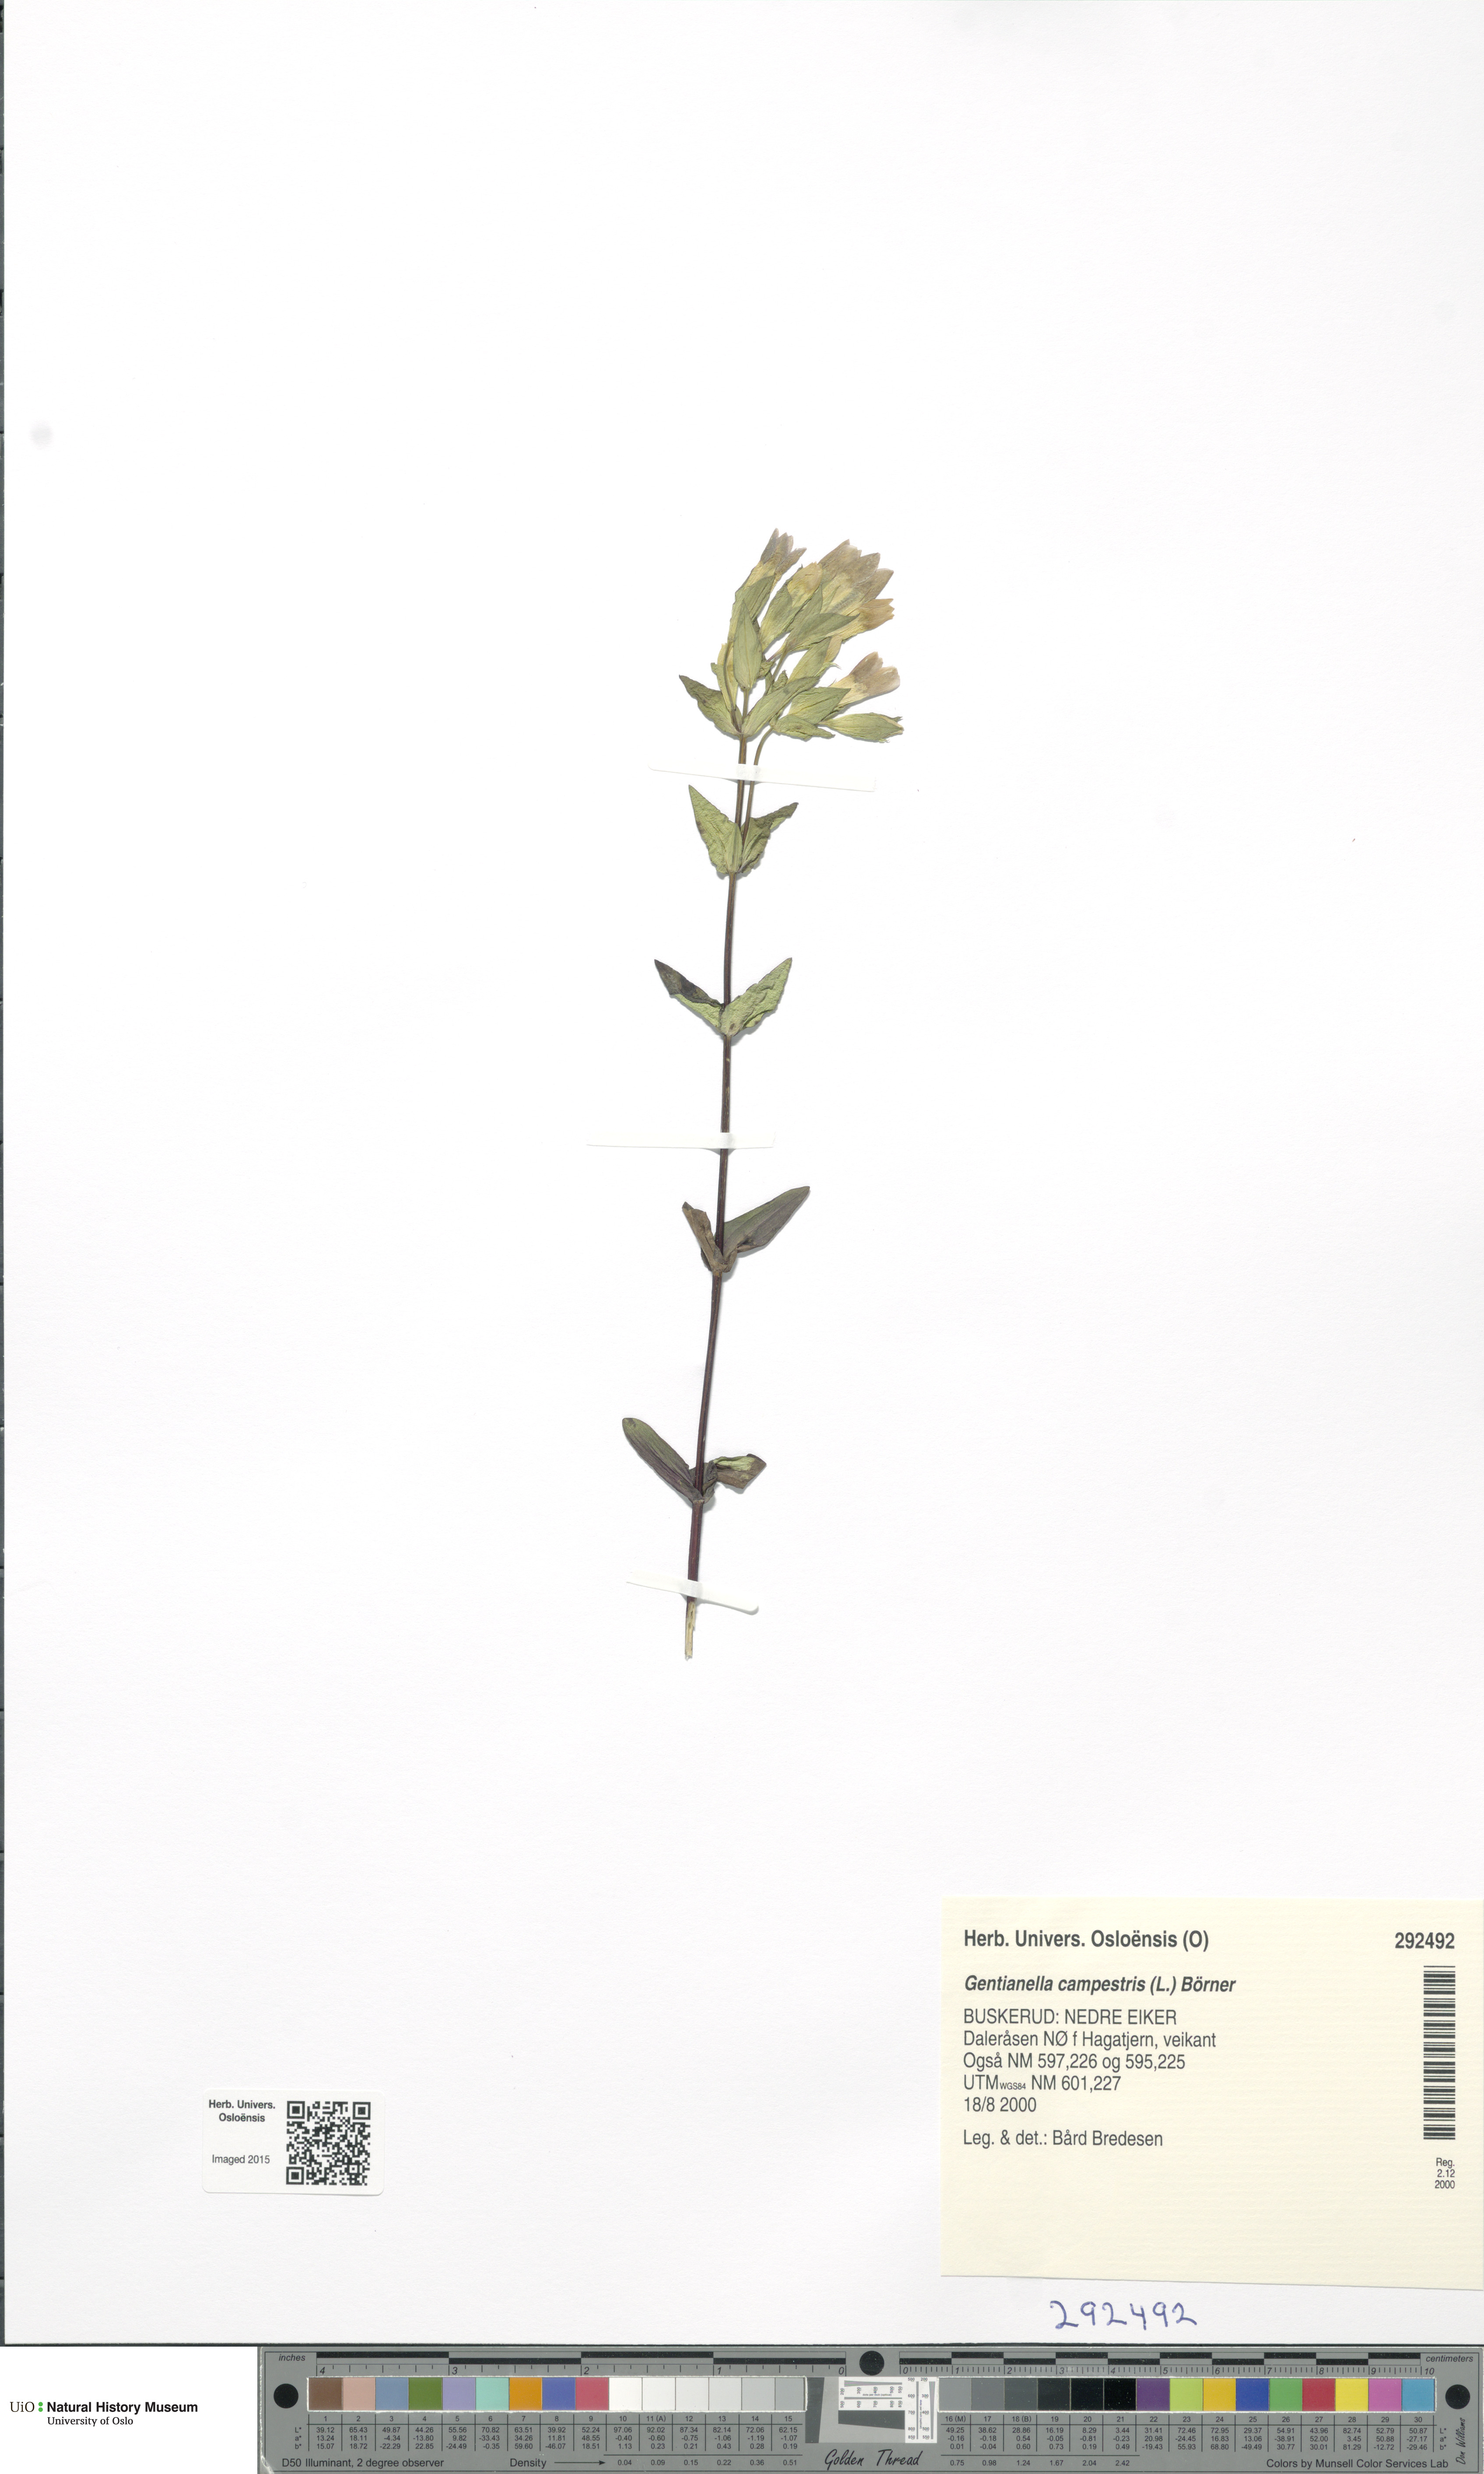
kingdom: Plantae
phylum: Tracheophyta
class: Magnoliopsida
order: Gentianales
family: Gentianaceae
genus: Gentianella
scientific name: Gentianella campestris
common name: Field gentian
